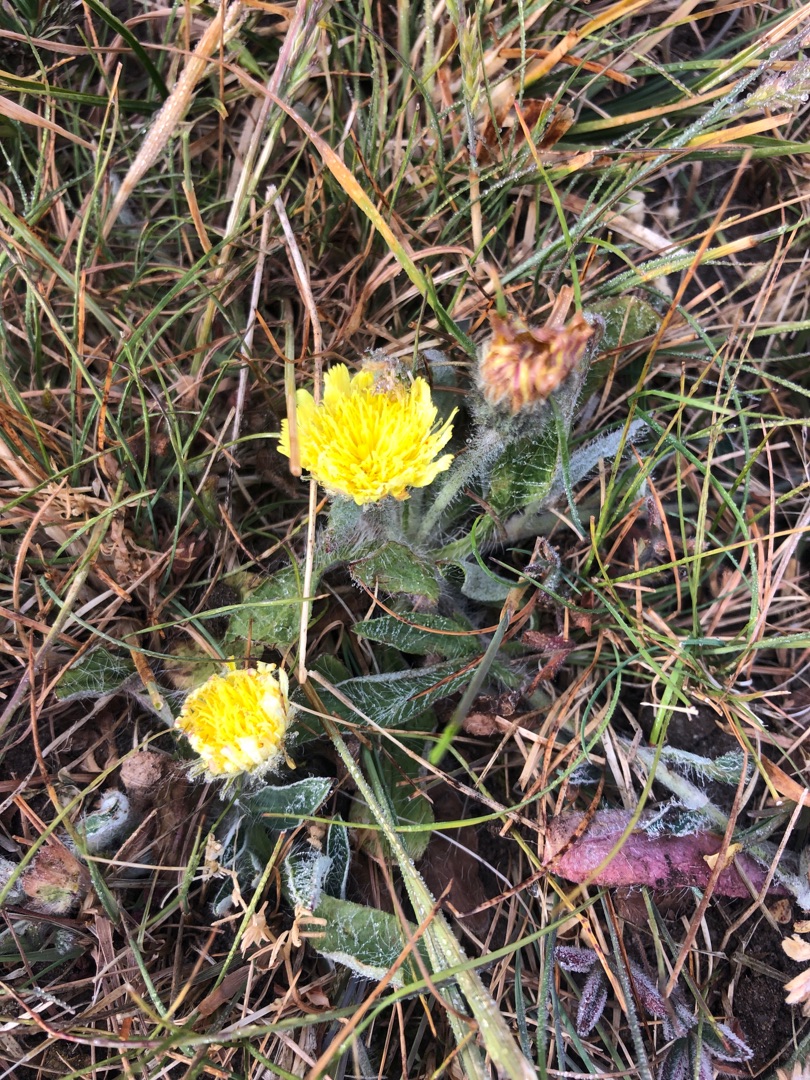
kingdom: Plantae
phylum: Tracheophyta
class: Magnoliopsida
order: Asterales
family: Asteraceae
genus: Pilosella
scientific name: Pilosella officinarum
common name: Håret høgeurt
